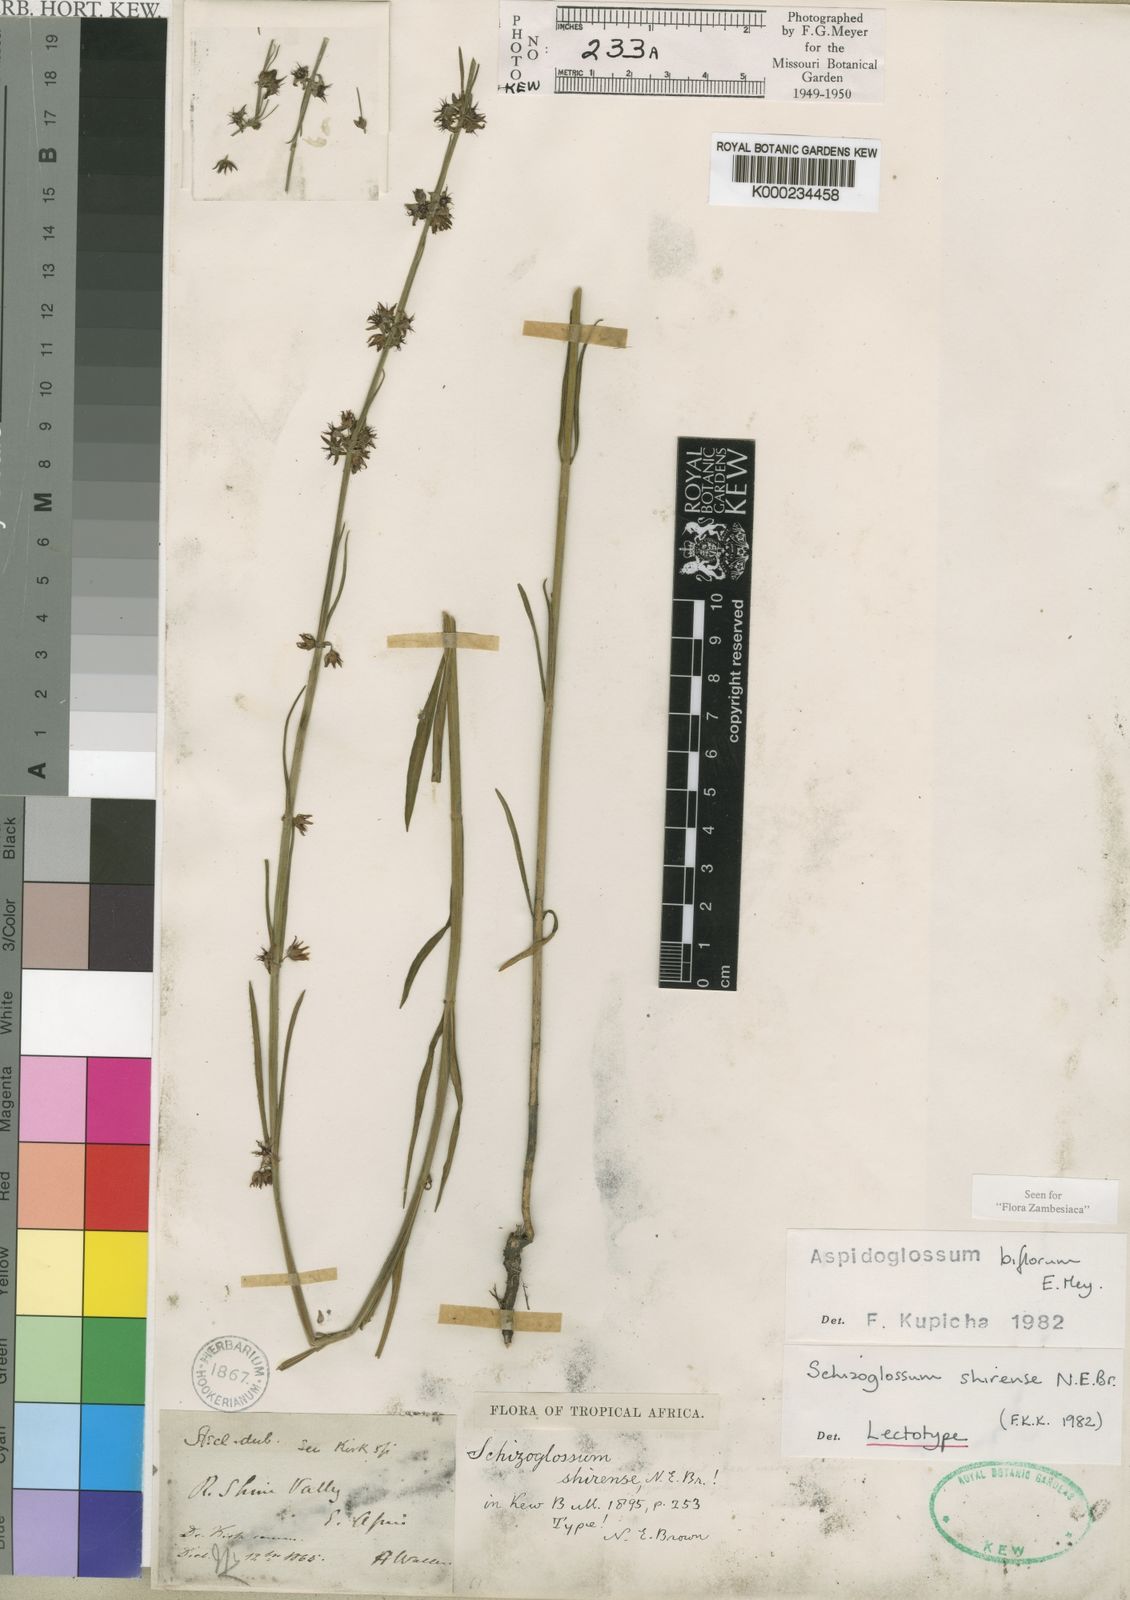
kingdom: Plantae
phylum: Tracheophyta
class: Magnoliopsida
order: Gentianales
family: Apocynaceae
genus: Aspidoglossum
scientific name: Aspidoglossum biflorum
